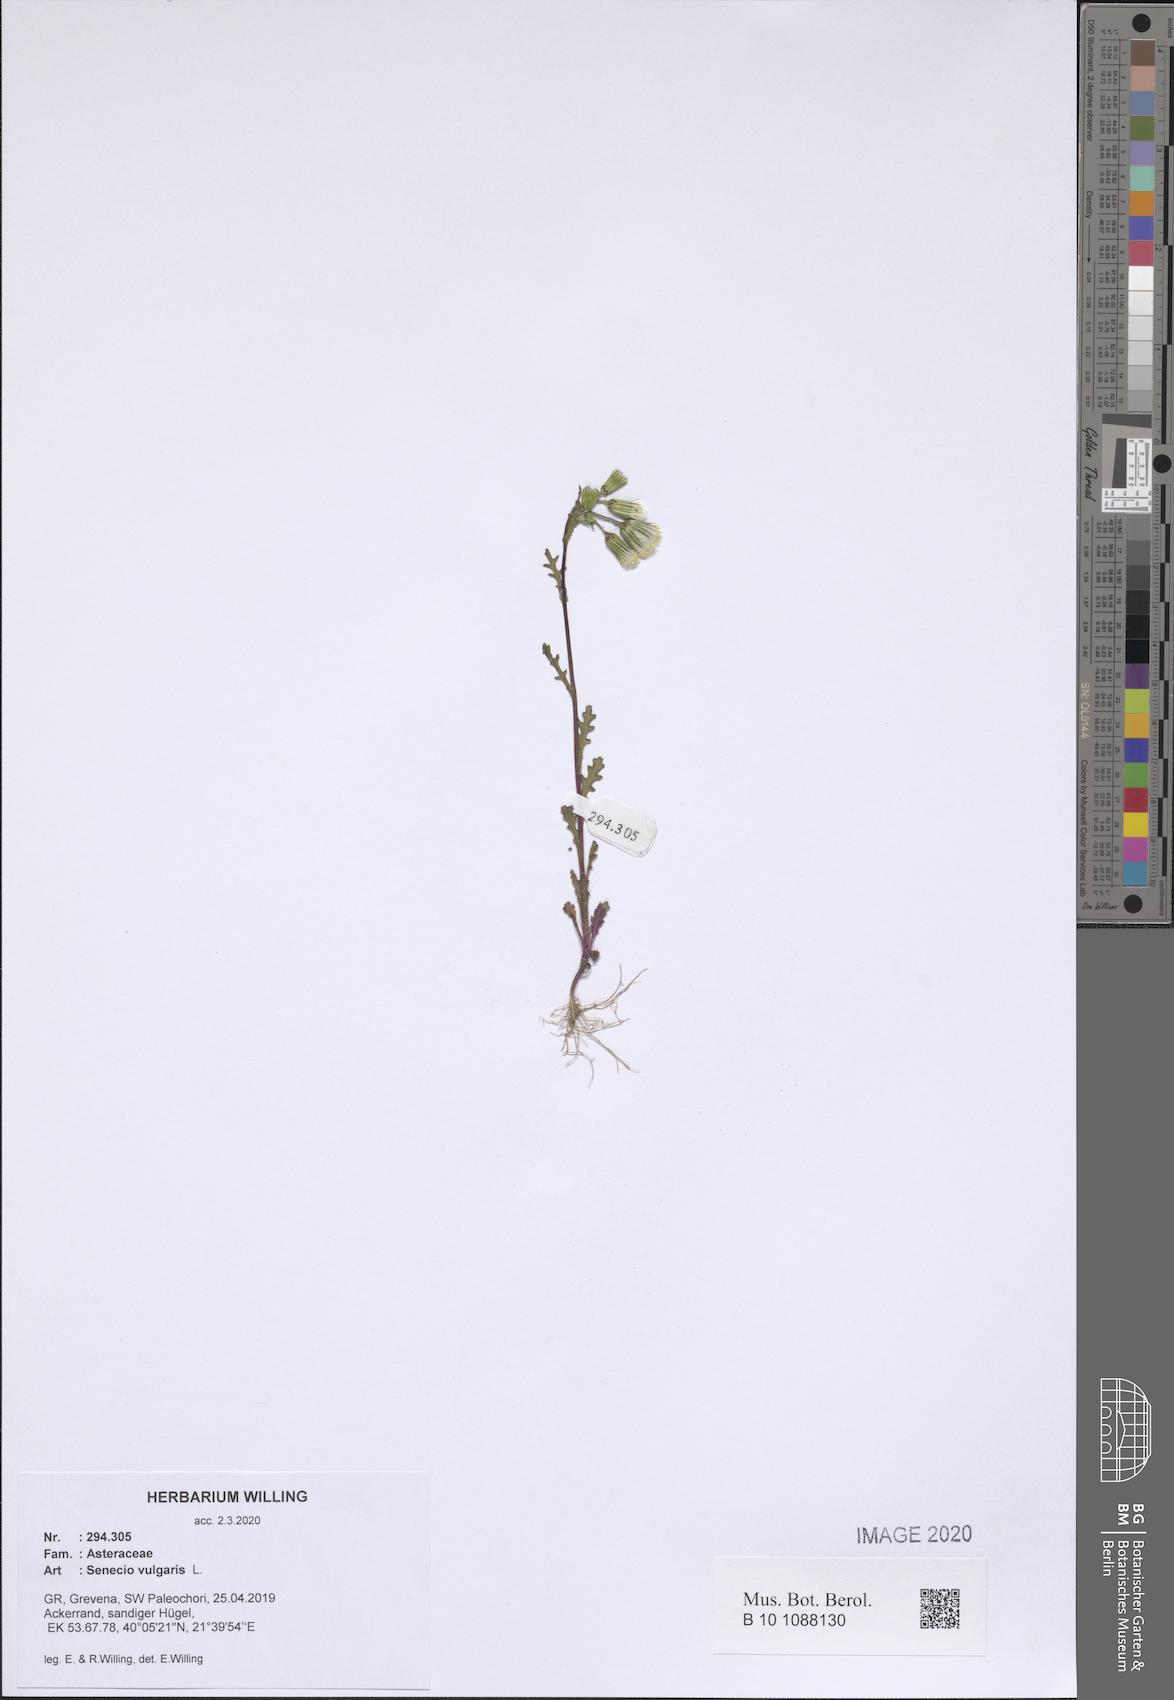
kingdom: Plantae
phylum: Tracheophyta
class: Magnoliopsida
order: Asterales
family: Asteraceae
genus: Senecio
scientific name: Senecio vulgaris
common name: Old-man-in-the-spring
